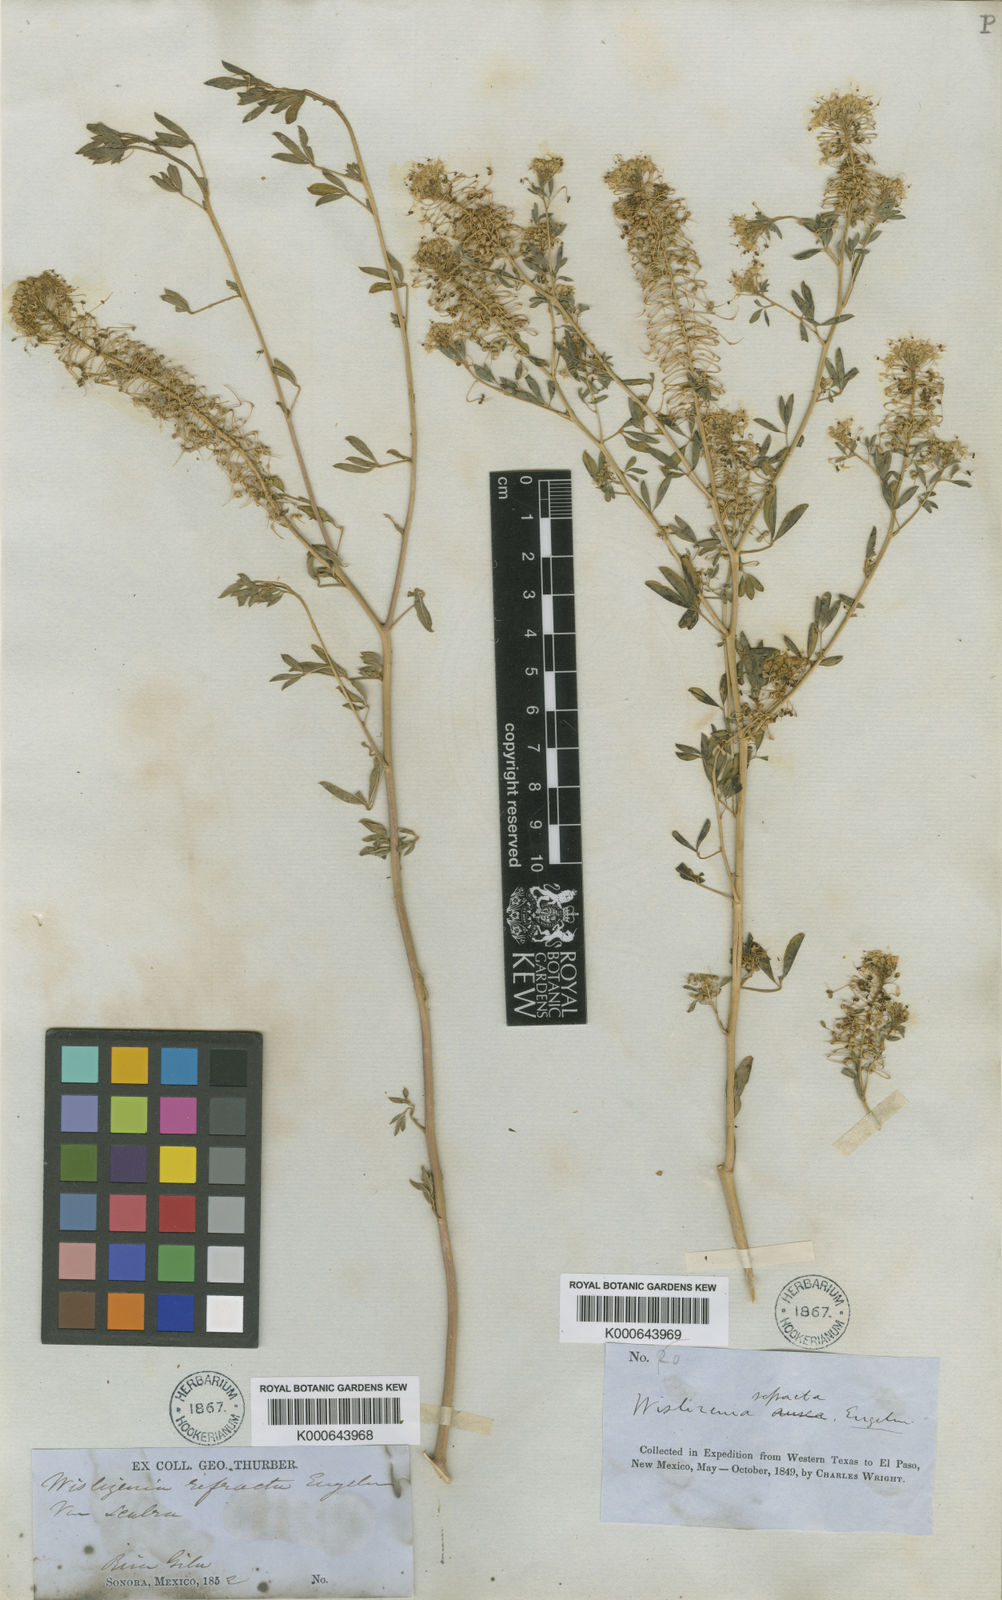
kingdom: Plantae
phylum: Tracheophyta
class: Magnoliopsida
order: Brassicales
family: Cleomaceae
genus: Cleomella
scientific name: Cleomella refracta
